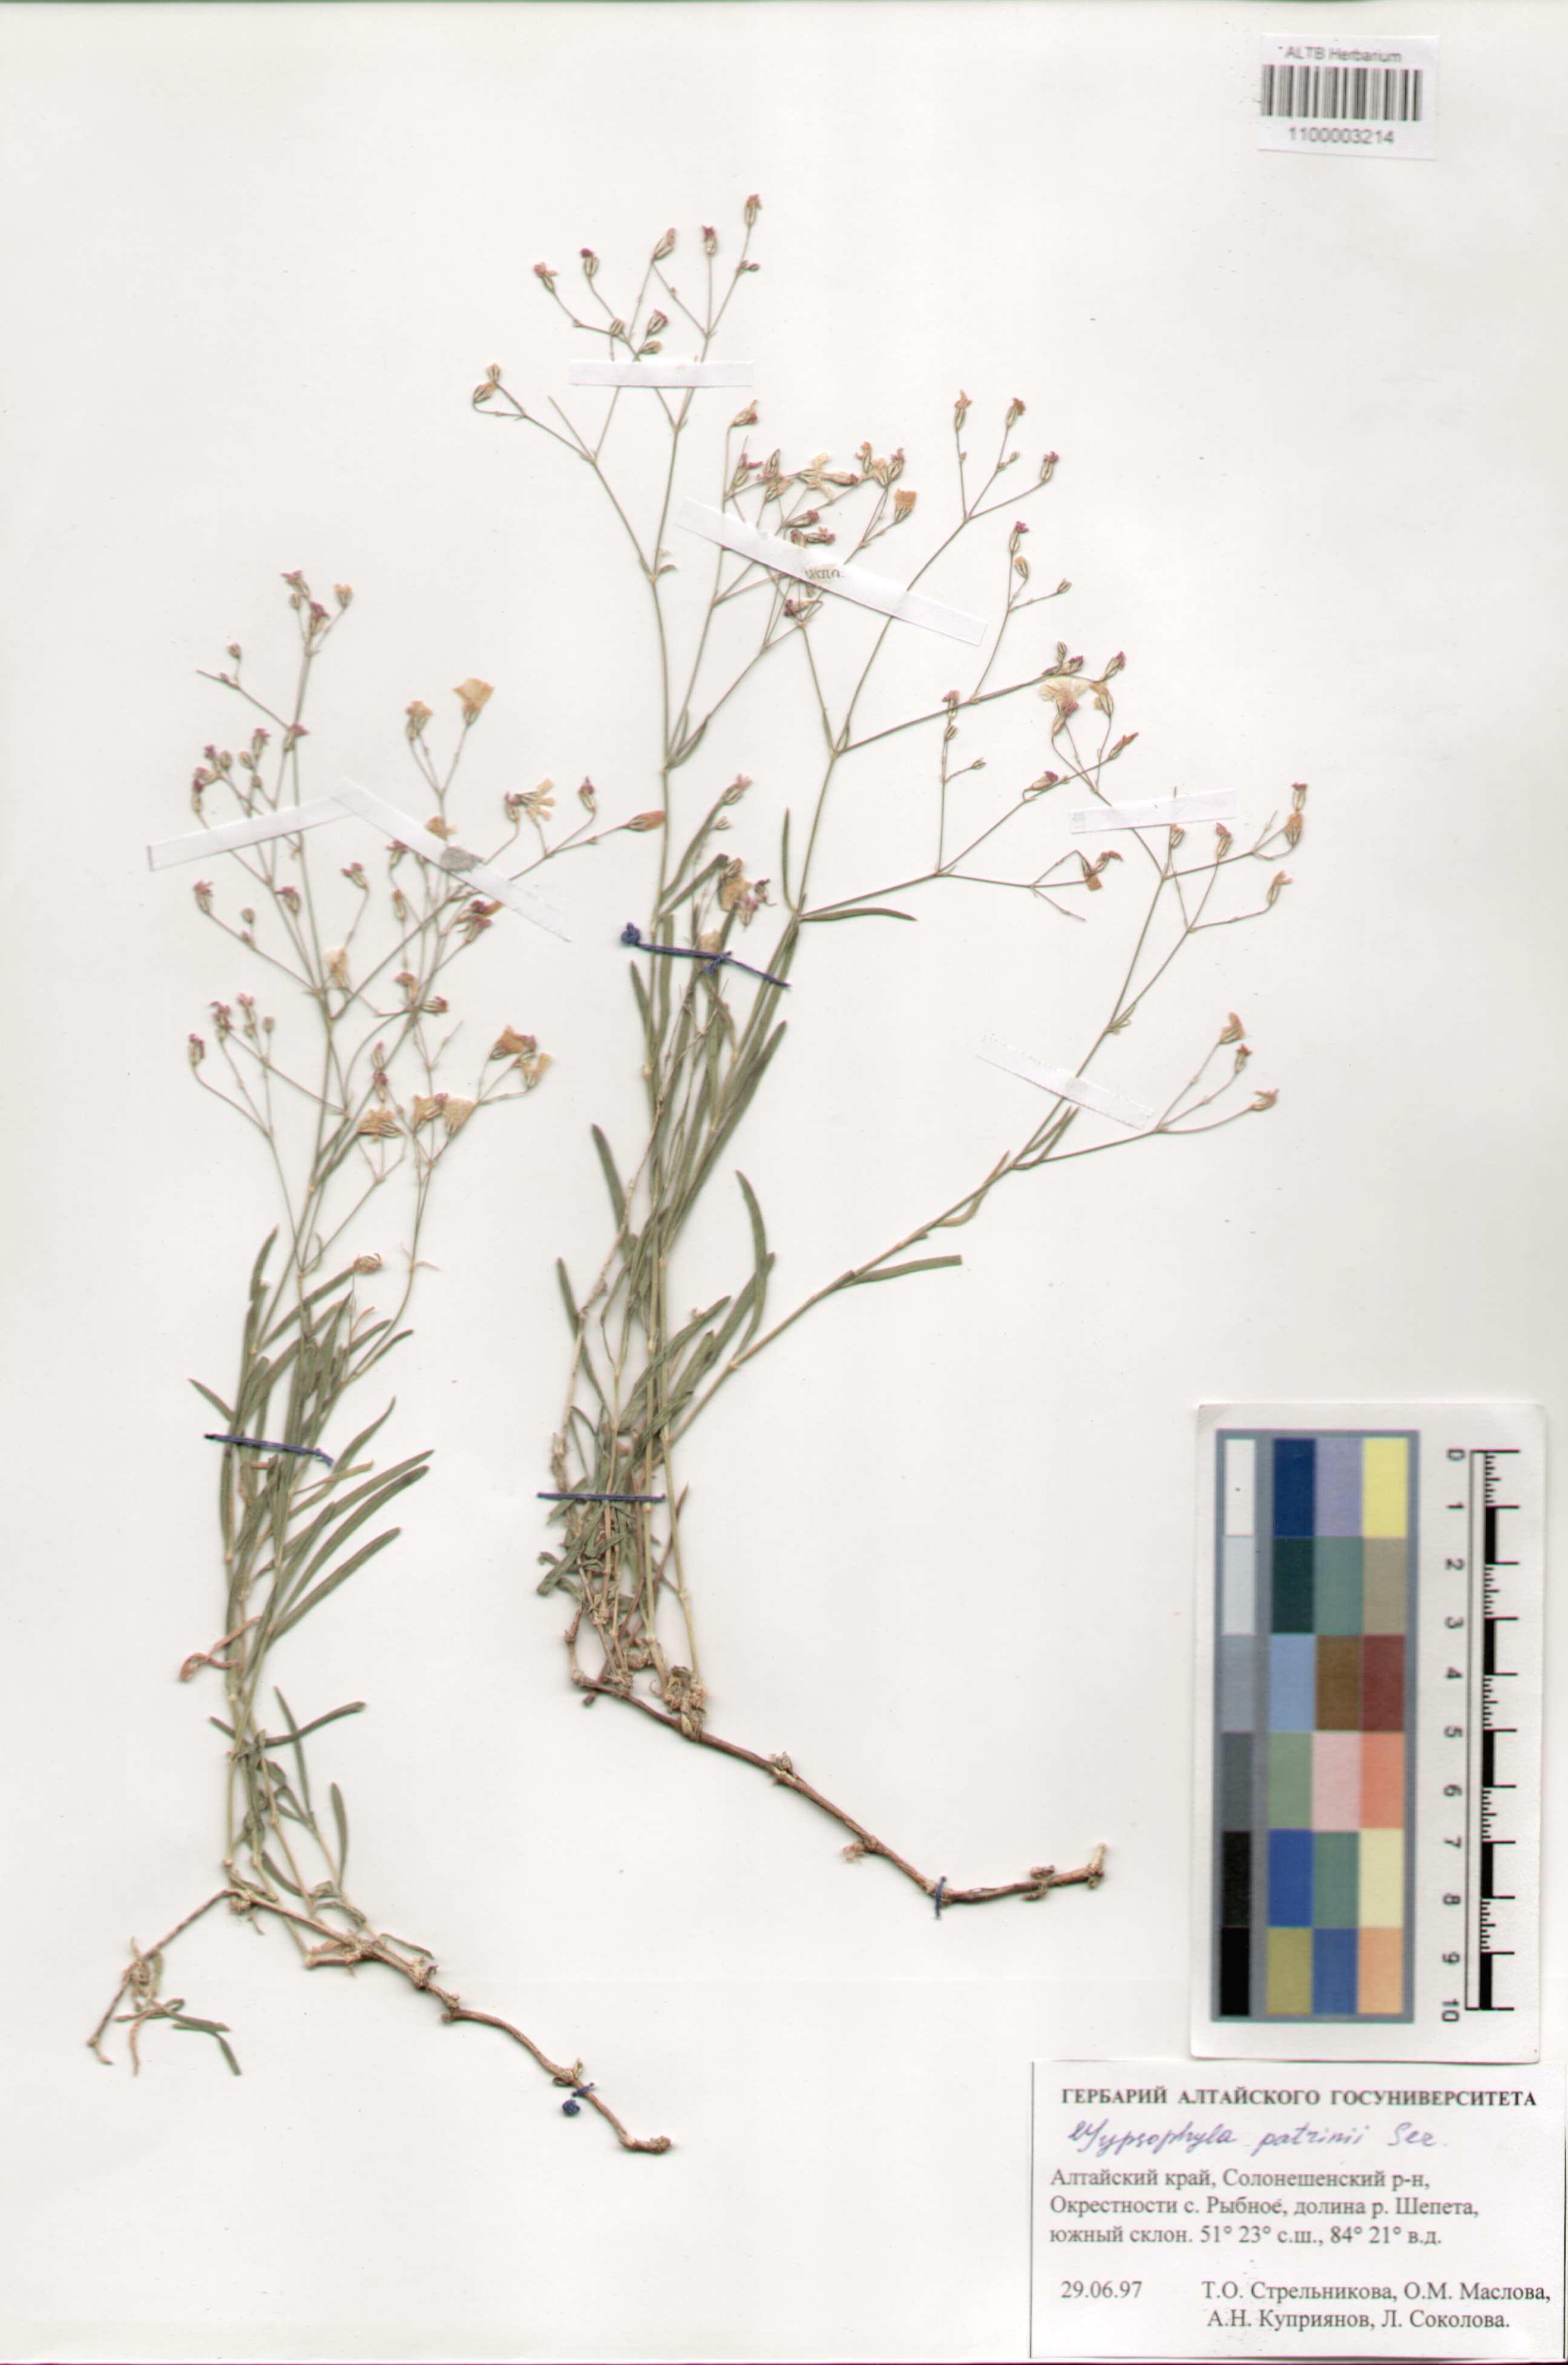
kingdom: Plantae
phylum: Tracheophyta
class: Magnoliopsida
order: Caryophyllales
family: Caryophyllaceae
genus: Gypsophila
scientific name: Gypsophila patrinii
